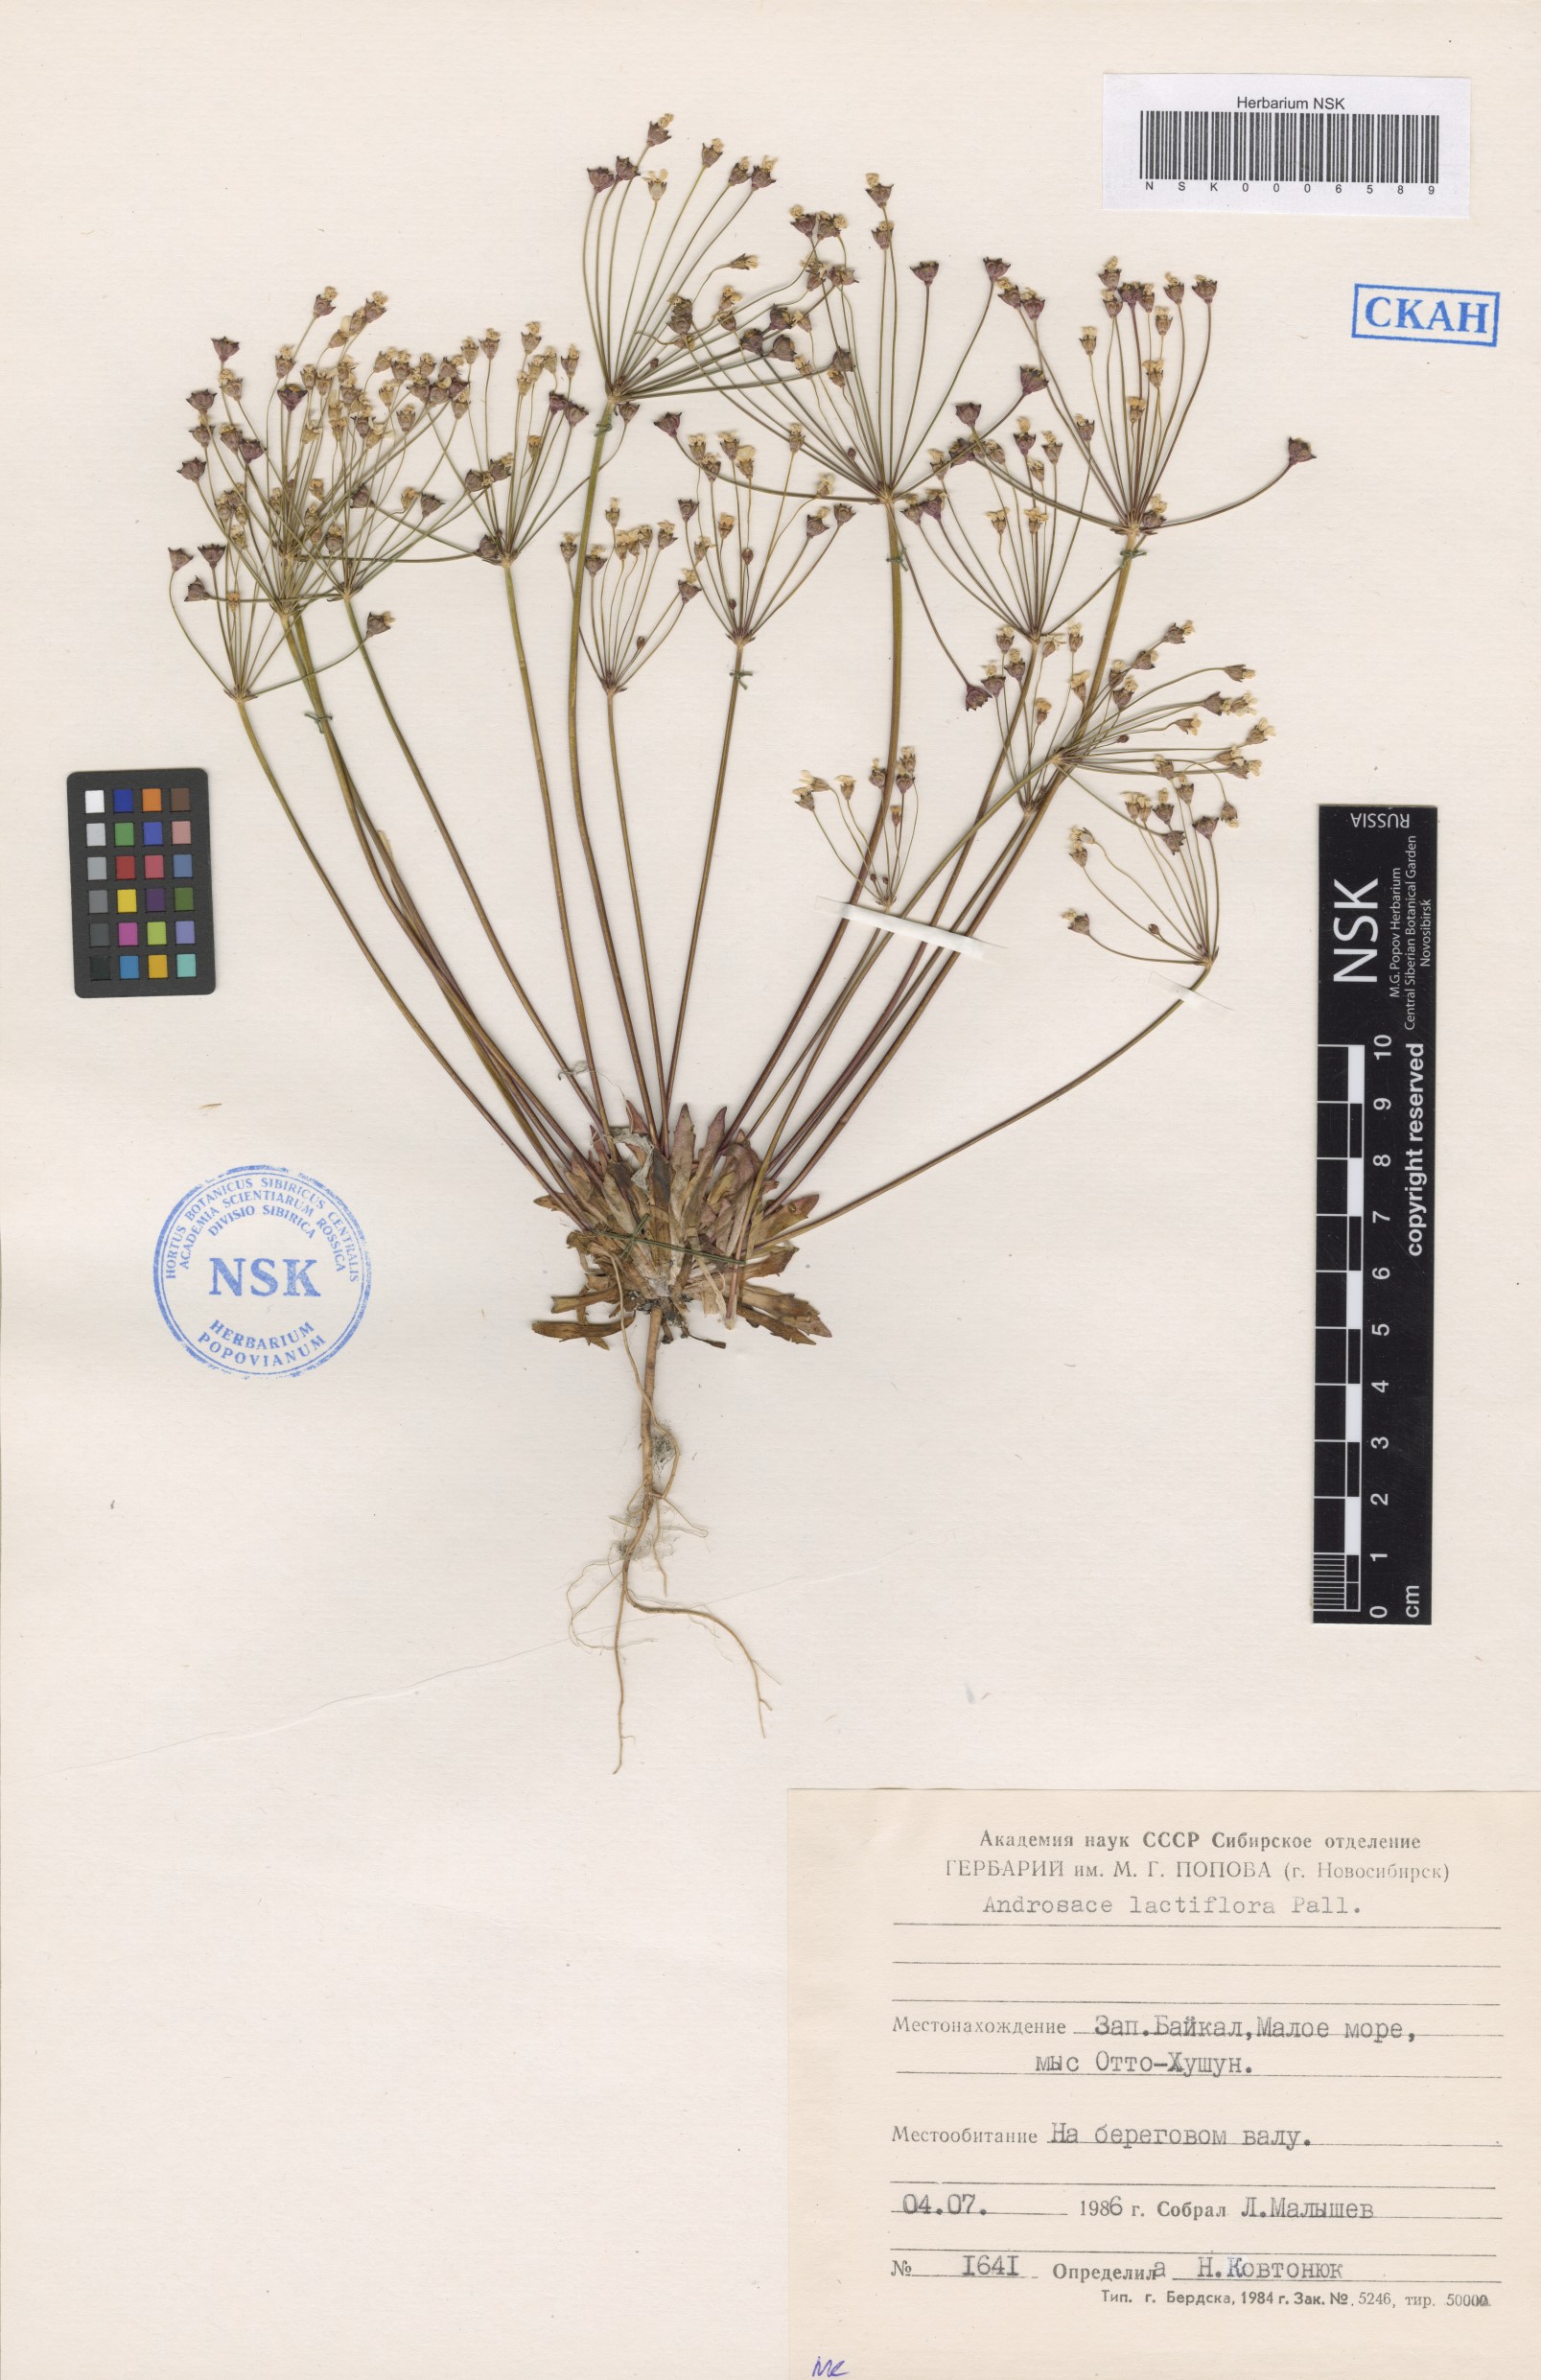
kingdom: Plantae
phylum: Tracheophyta
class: Magnoliopsida
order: Ericales
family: Primulaceae
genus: Androsace
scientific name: Androsace lactiflora
